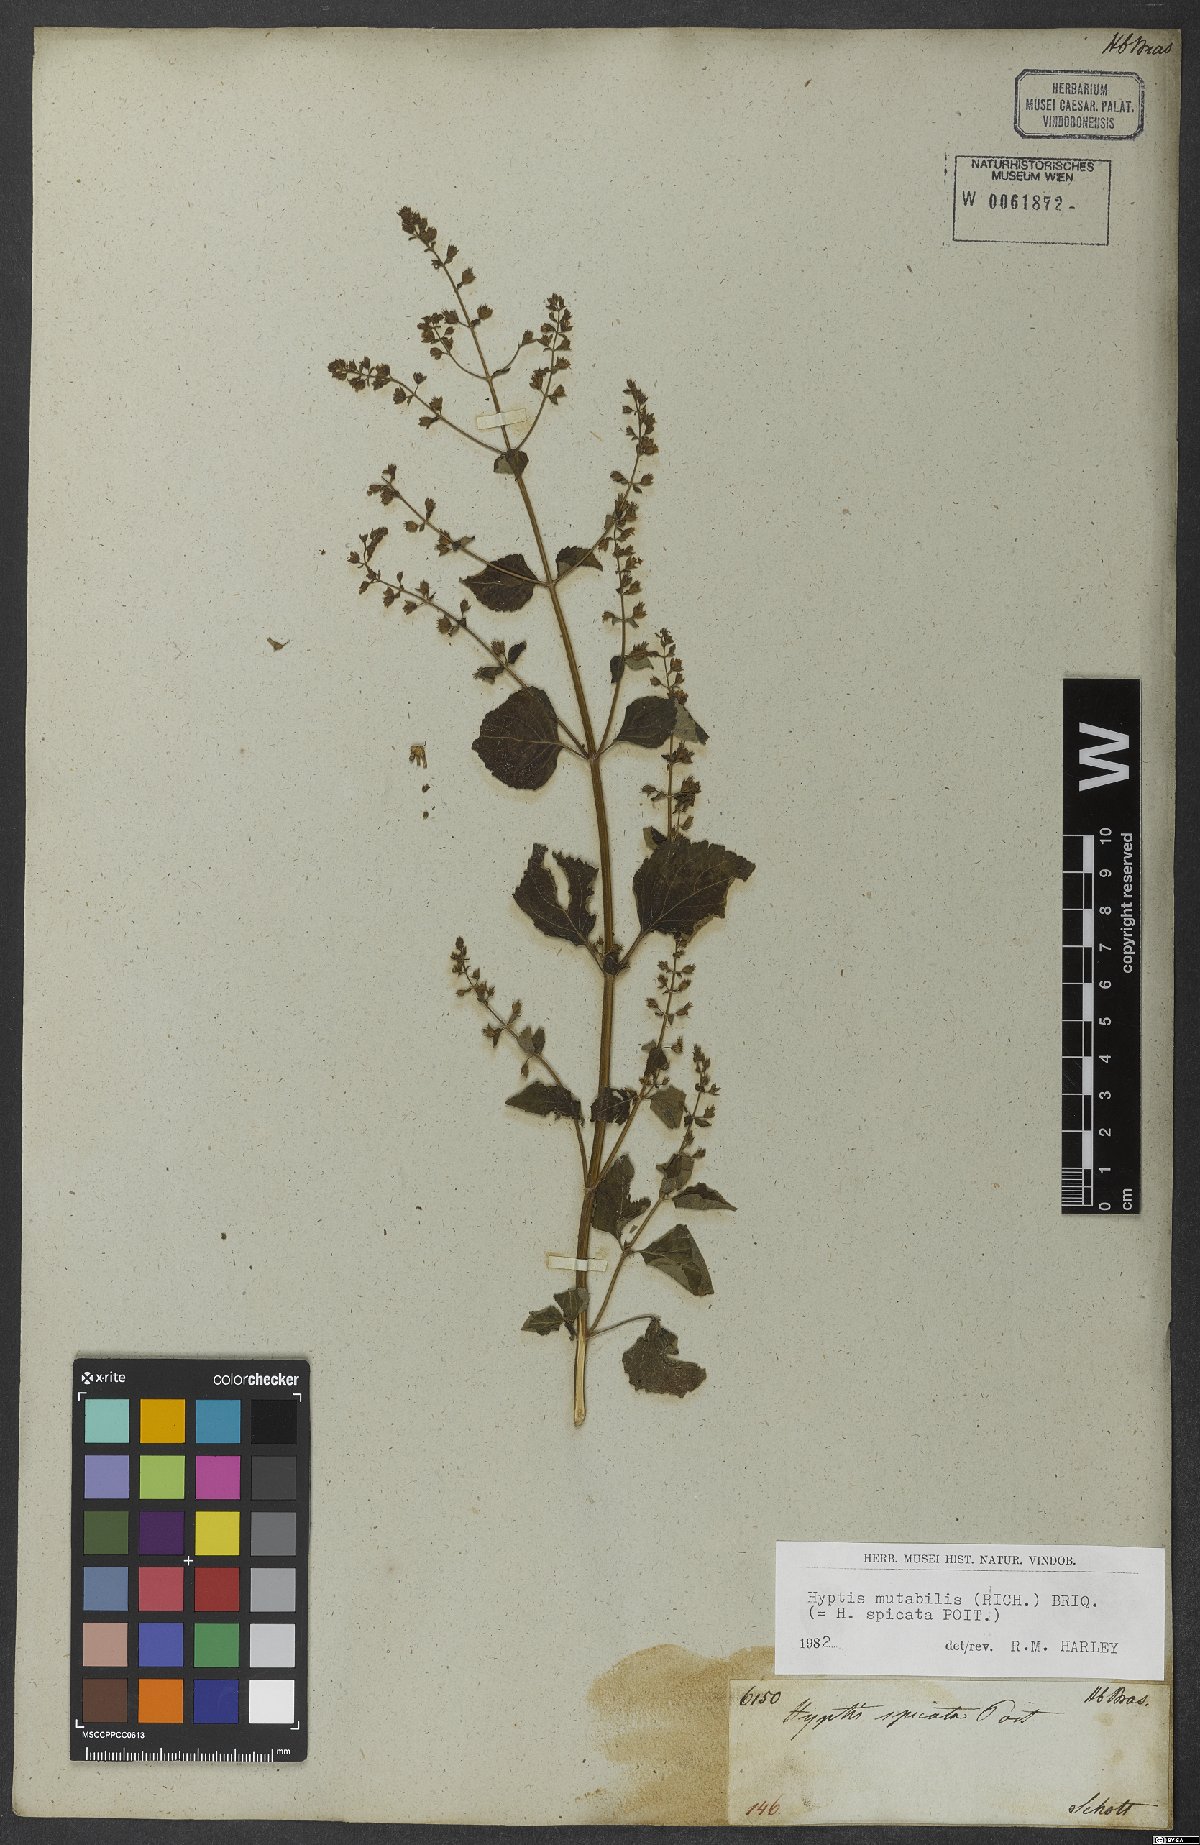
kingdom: Plantae
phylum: Tracheophyta
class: Magnoliopsida
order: Lamiales
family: Lamiaceae
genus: Cantinoa
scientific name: Cantinoa mutabilis
